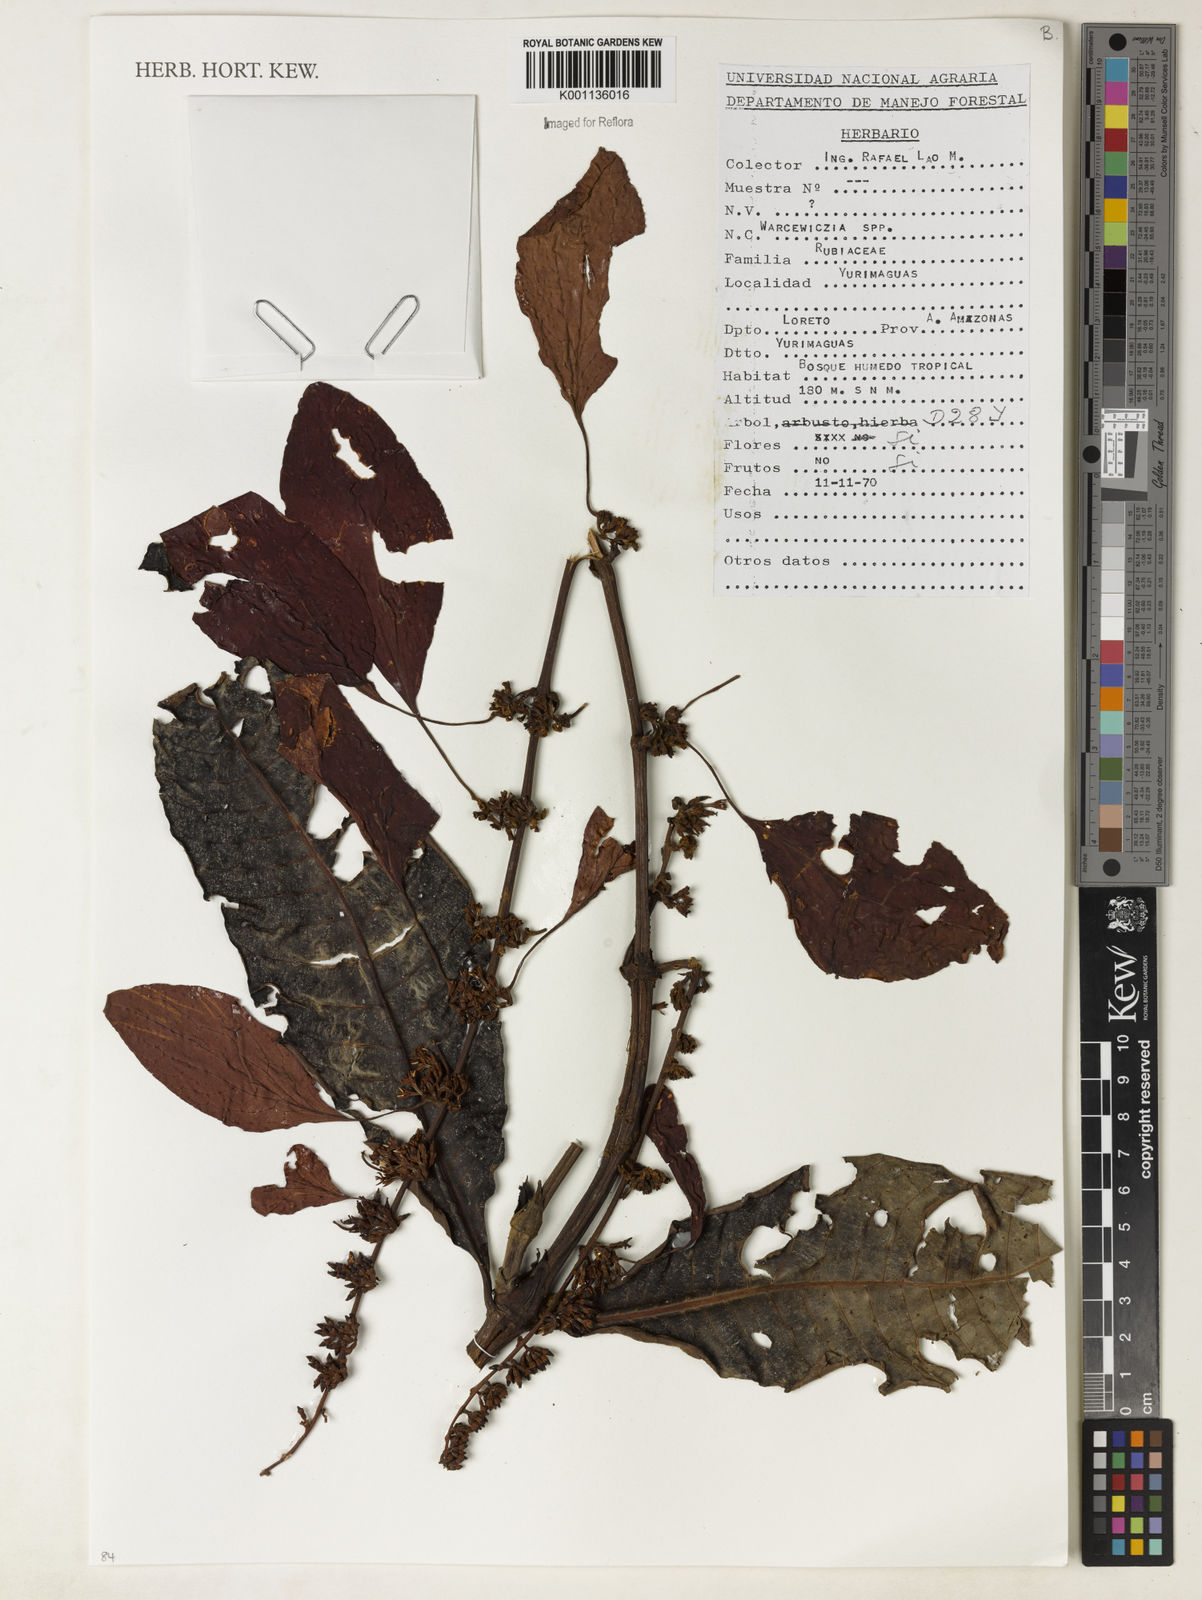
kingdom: Plantae
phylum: Tracheophyta
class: Magnoliopsida
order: Gentianales
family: Rubiaceae
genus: Warszewiczia
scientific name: Warszewiczia
